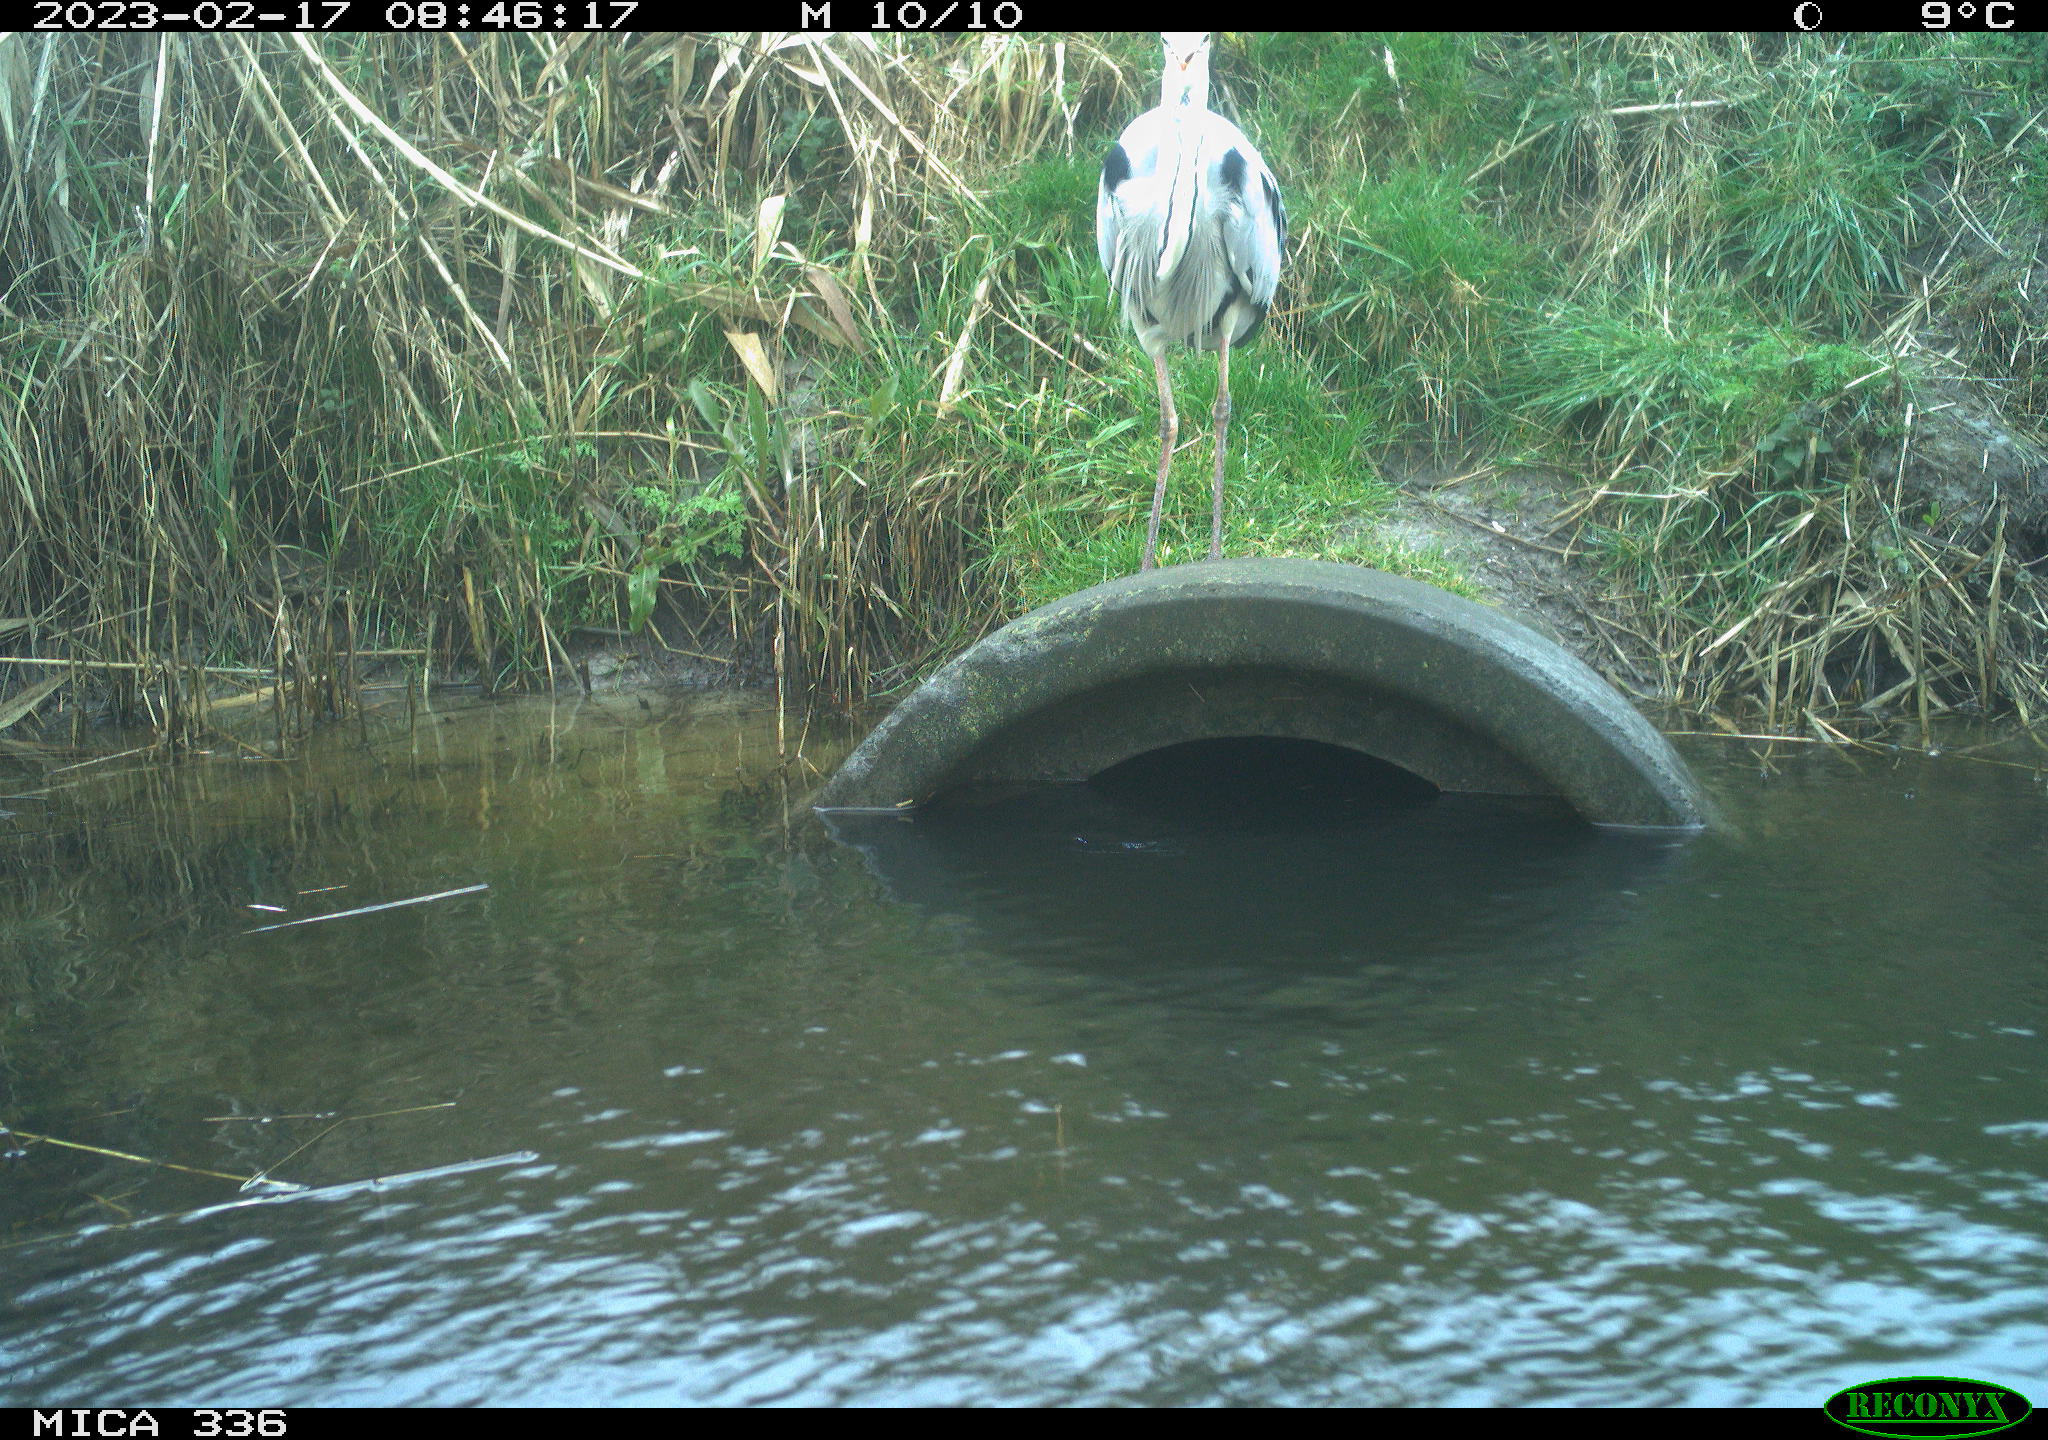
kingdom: Animalia
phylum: Chordata
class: Aves
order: Pelecaniformes
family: Ardeidae
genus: Ardea
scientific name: Ardea cinerea
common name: Grey heron
